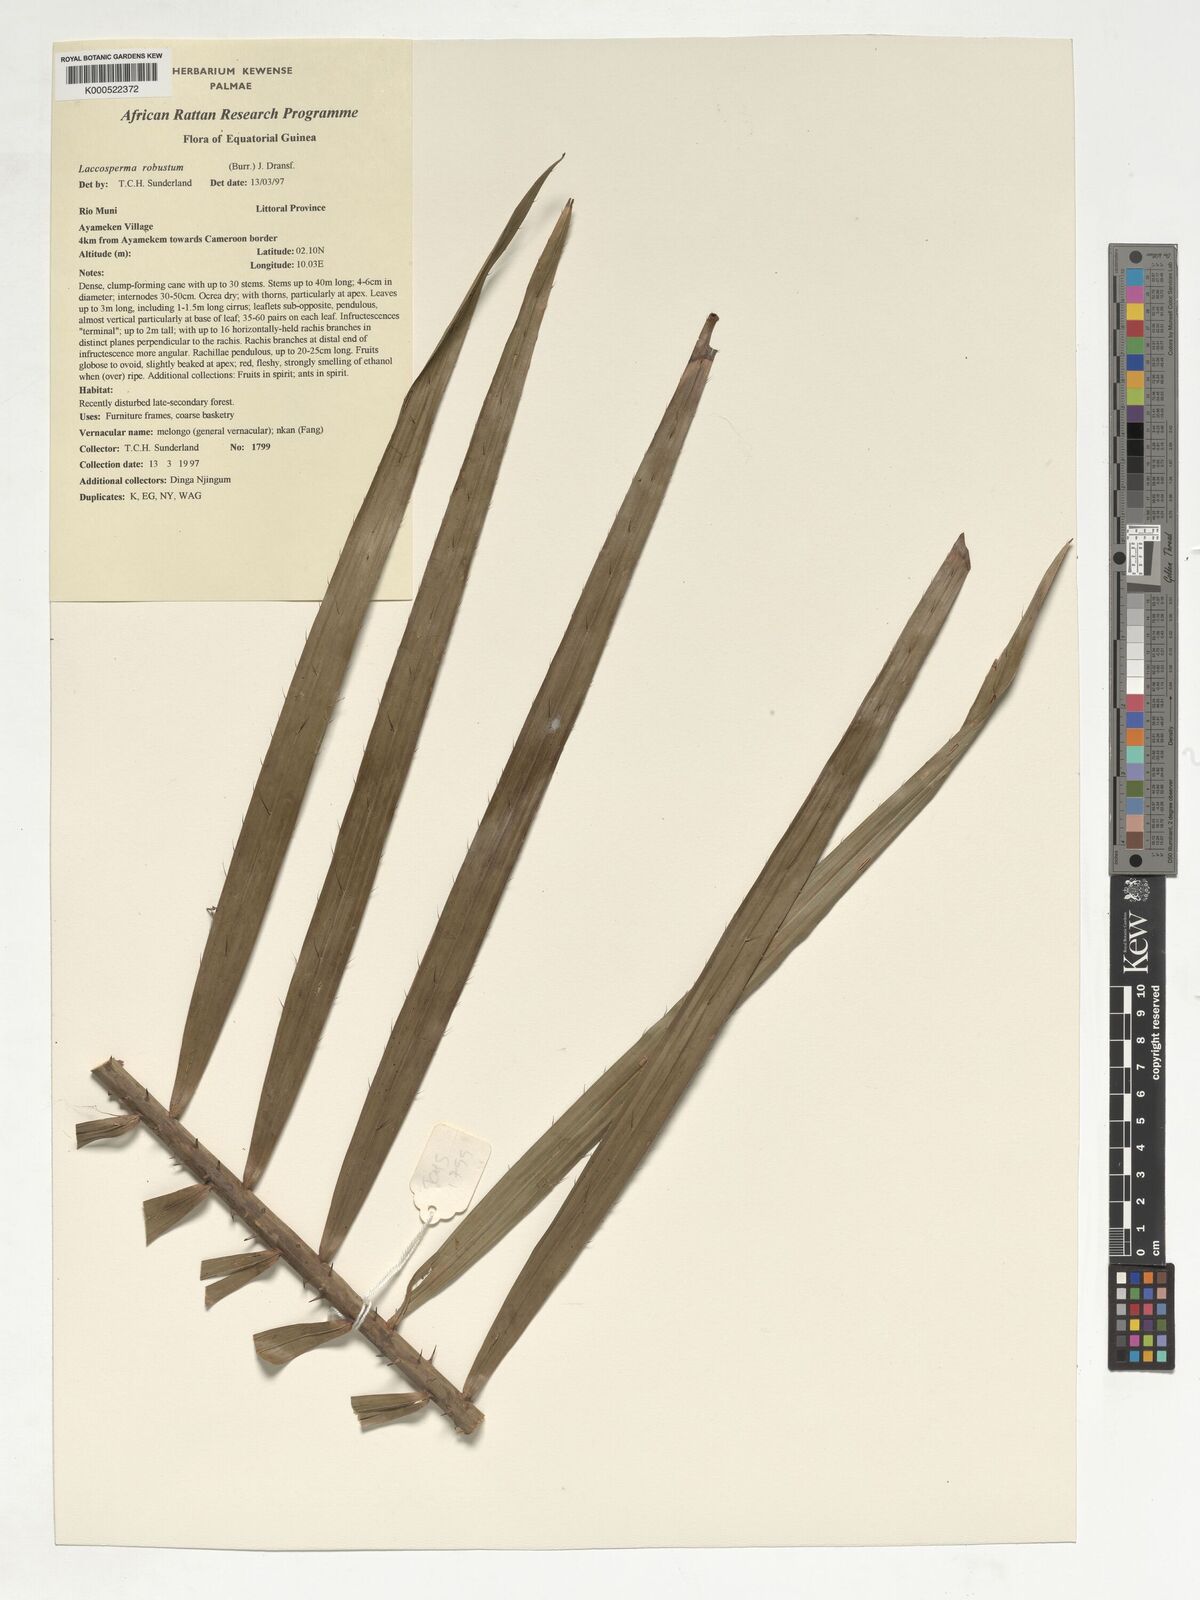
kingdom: Plantae
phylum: Tracheophyta
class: Liliopsida
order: Arecales
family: Arecaceae
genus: Laccosperma
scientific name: Laccosperma robustum
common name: Rattan
